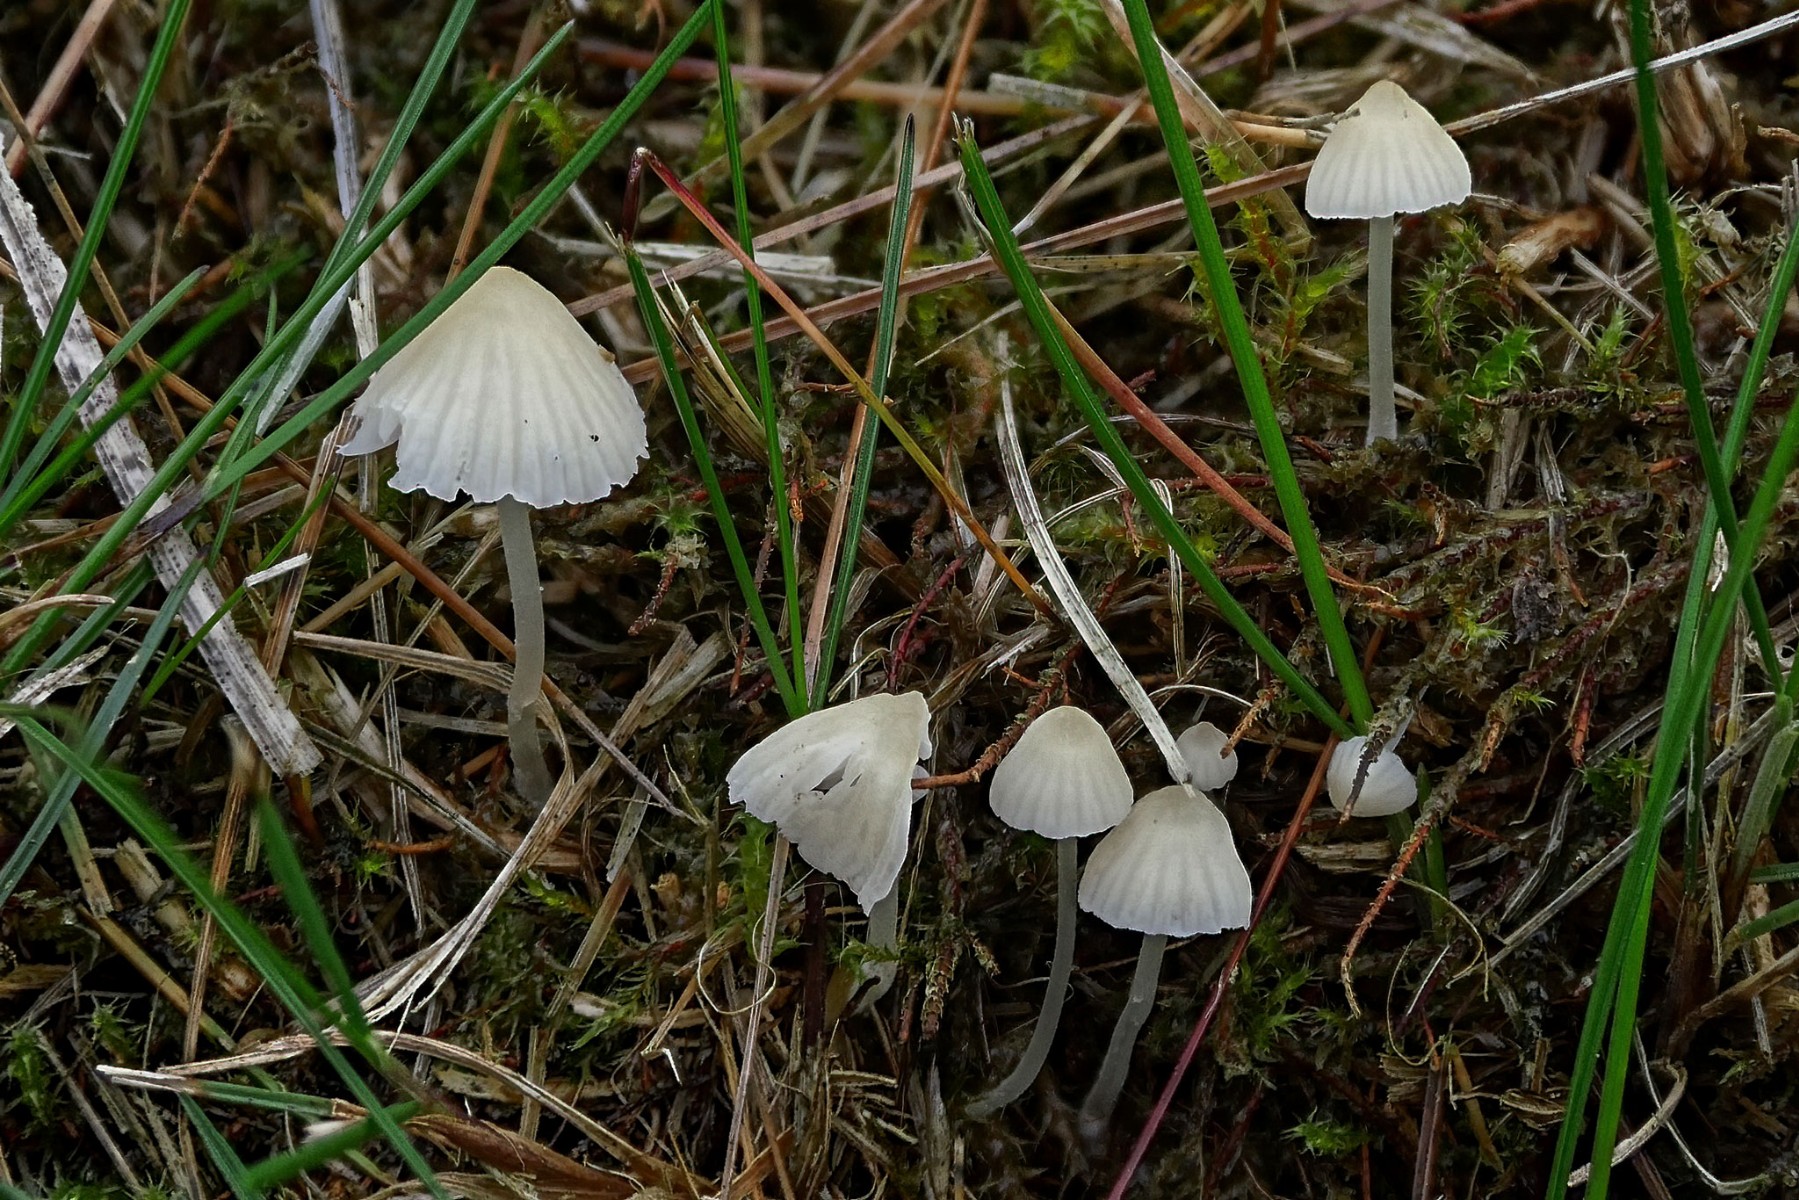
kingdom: Fungi
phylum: Basidiomycota
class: Agaricomycetes
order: Agaricales
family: Mycenaceae
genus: Atheniella
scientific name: Atheniella flavoalba
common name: gulhvid huesvamp
